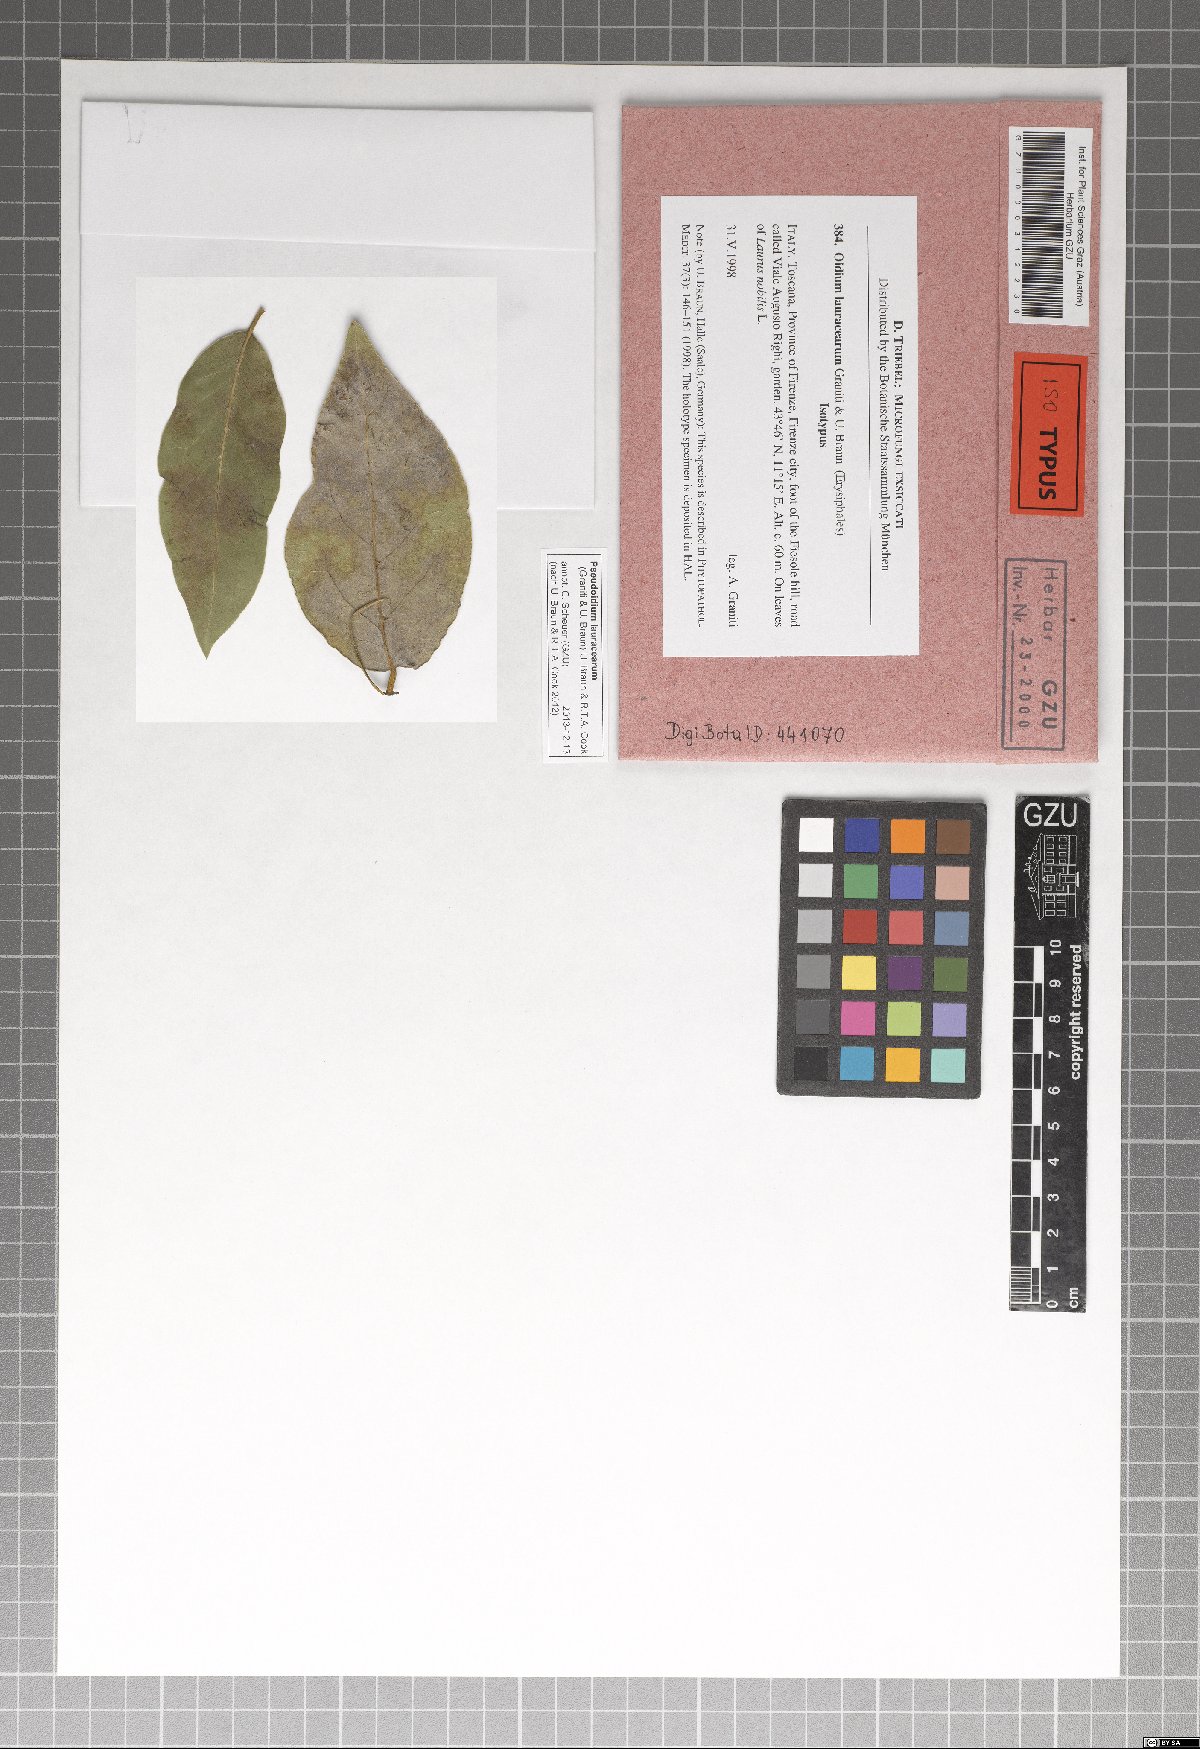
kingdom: Fungi
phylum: Ascomycota
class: Leotiomycetes
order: Helotiales
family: Erysiphaceae
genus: Pseudoidium
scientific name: Pseudoidium lauracearum
